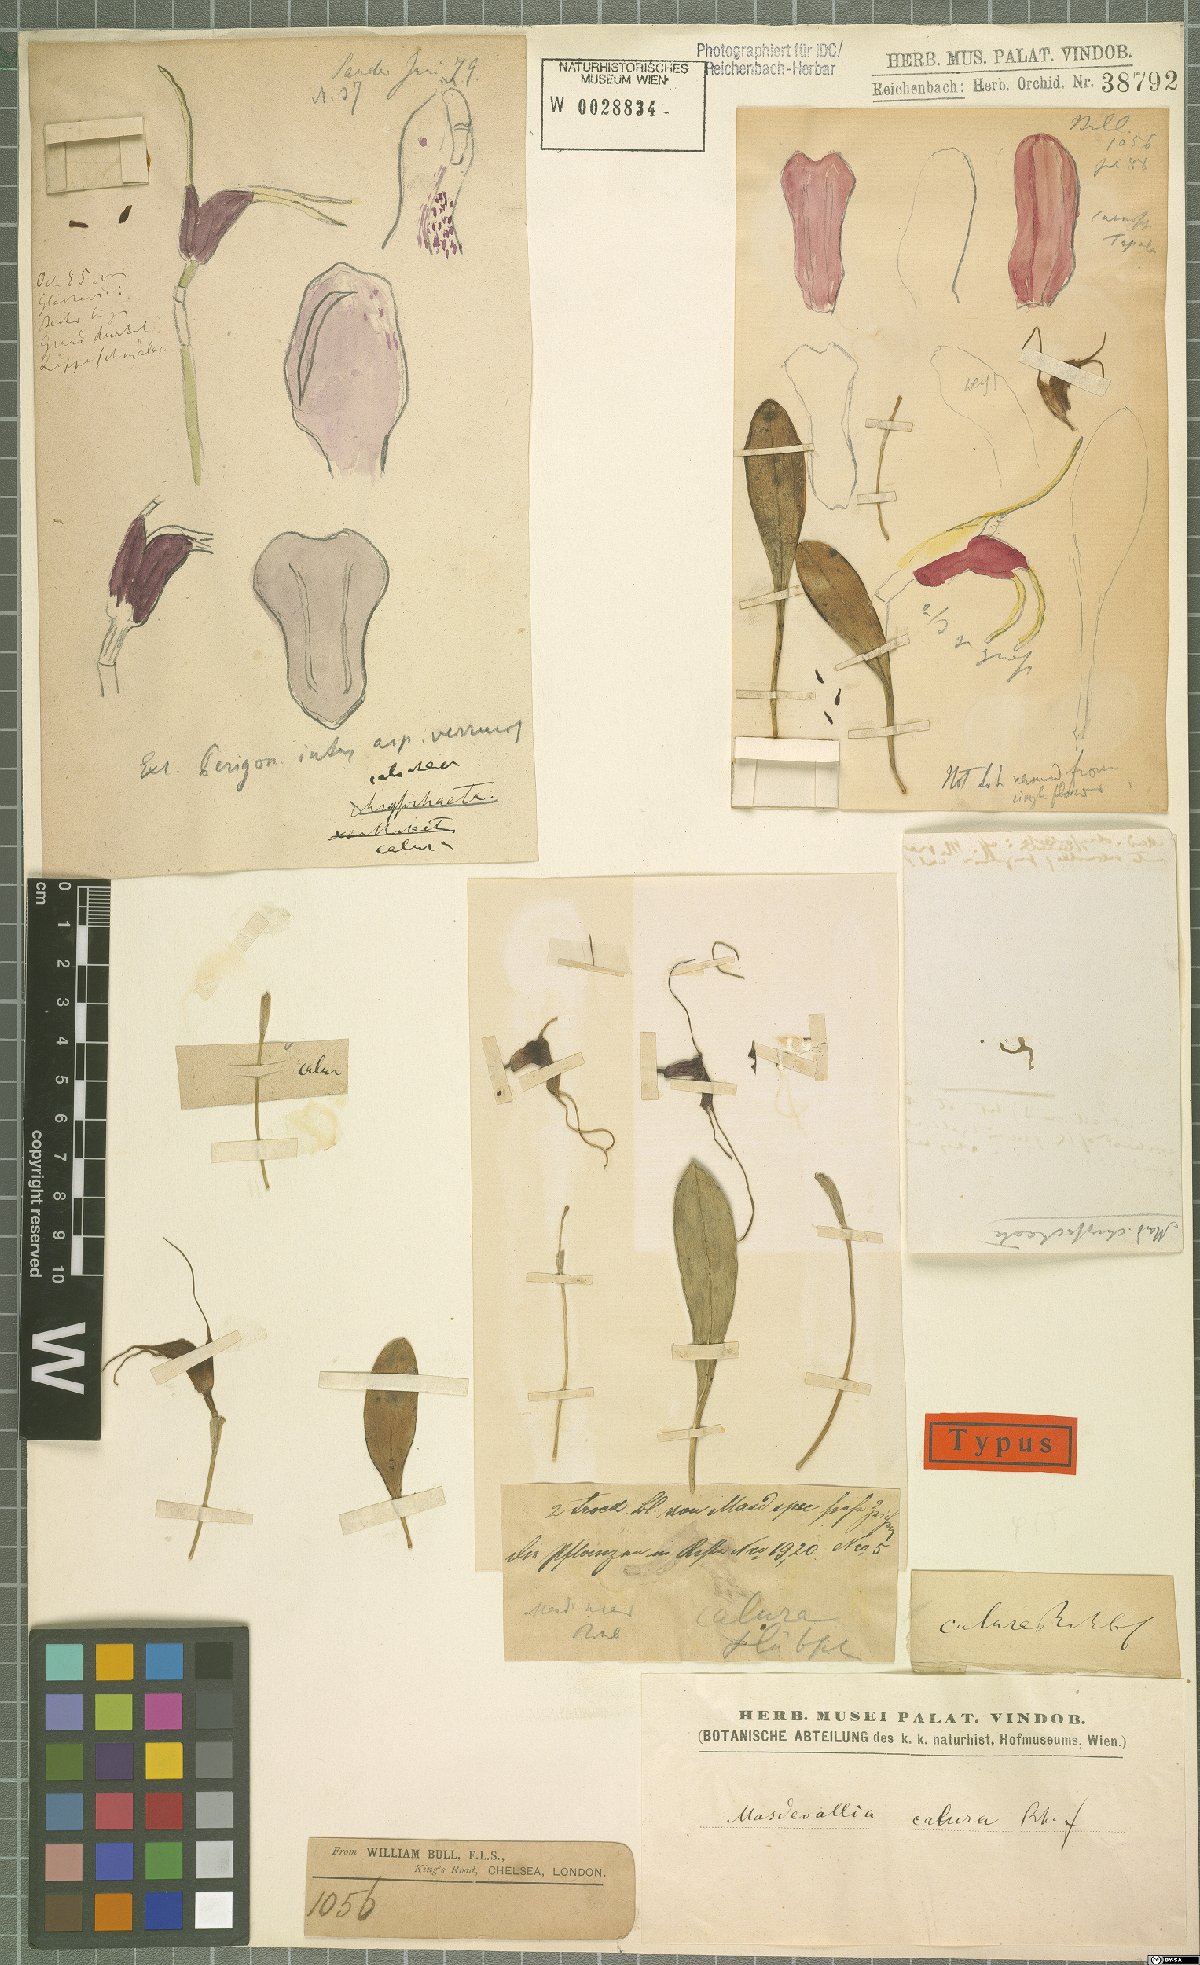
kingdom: Plantae
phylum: Tracheophyta
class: Liliopsida
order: Asparagales
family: Orchidaceae
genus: Masdevallia
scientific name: Masdevallia calura
